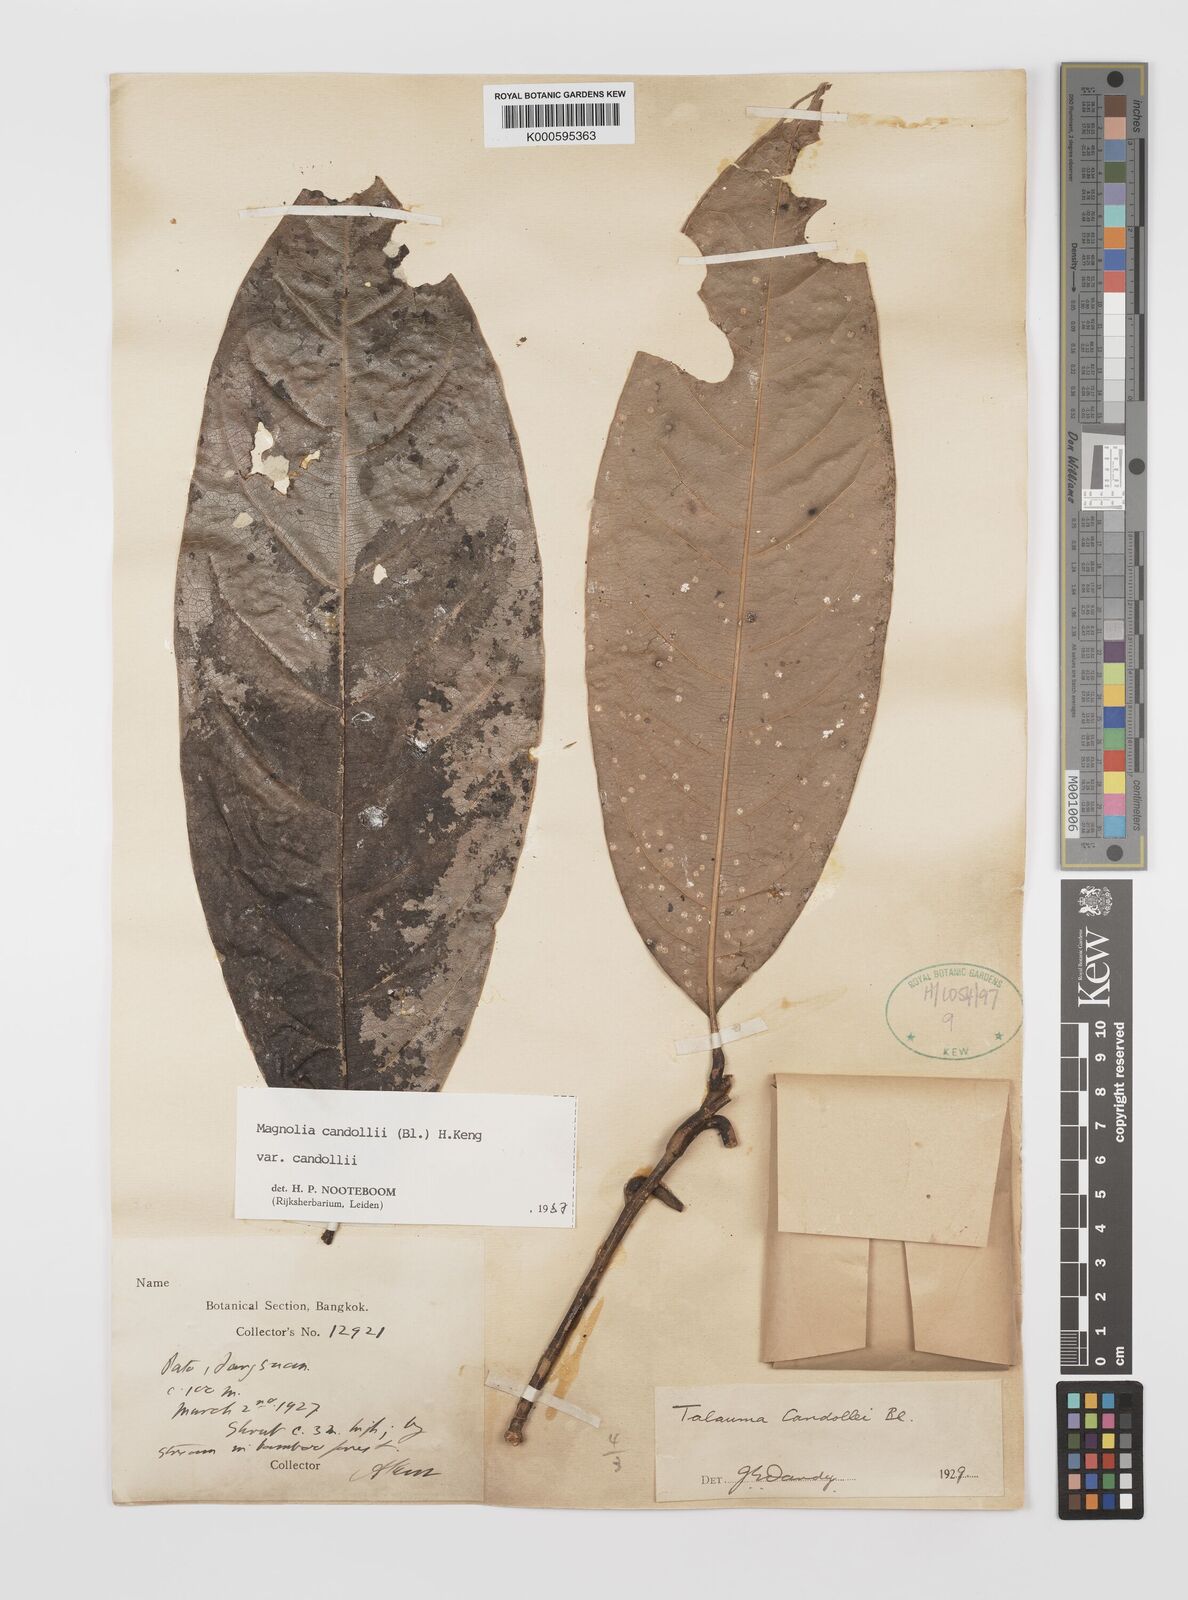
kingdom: Plantae
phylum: Tracheophyta
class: Magnoliopsida
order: Magnoliales
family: Magnoliaceae
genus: Magnolia
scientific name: Magnolia liliifera
